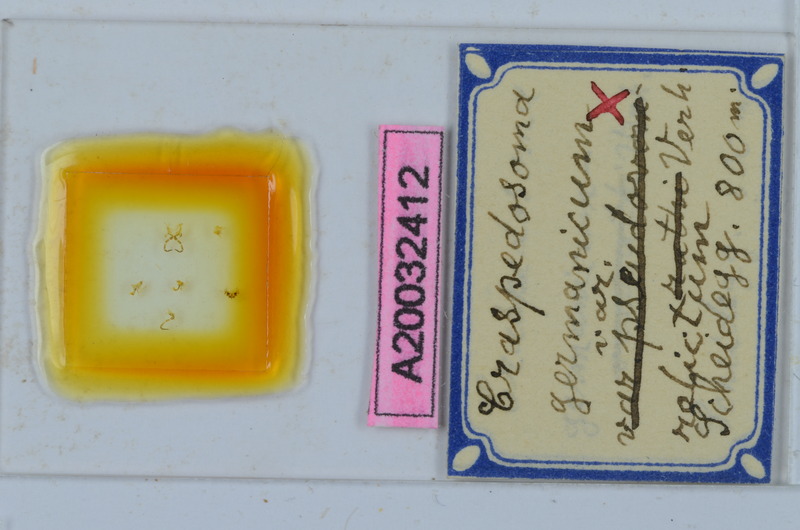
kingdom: Animalia
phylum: Arthropoda
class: Diplopoda
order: Chordeumatida
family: Craspedosomatidae
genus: Craspedosoma
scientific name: Craspedosoma rawlinsii
